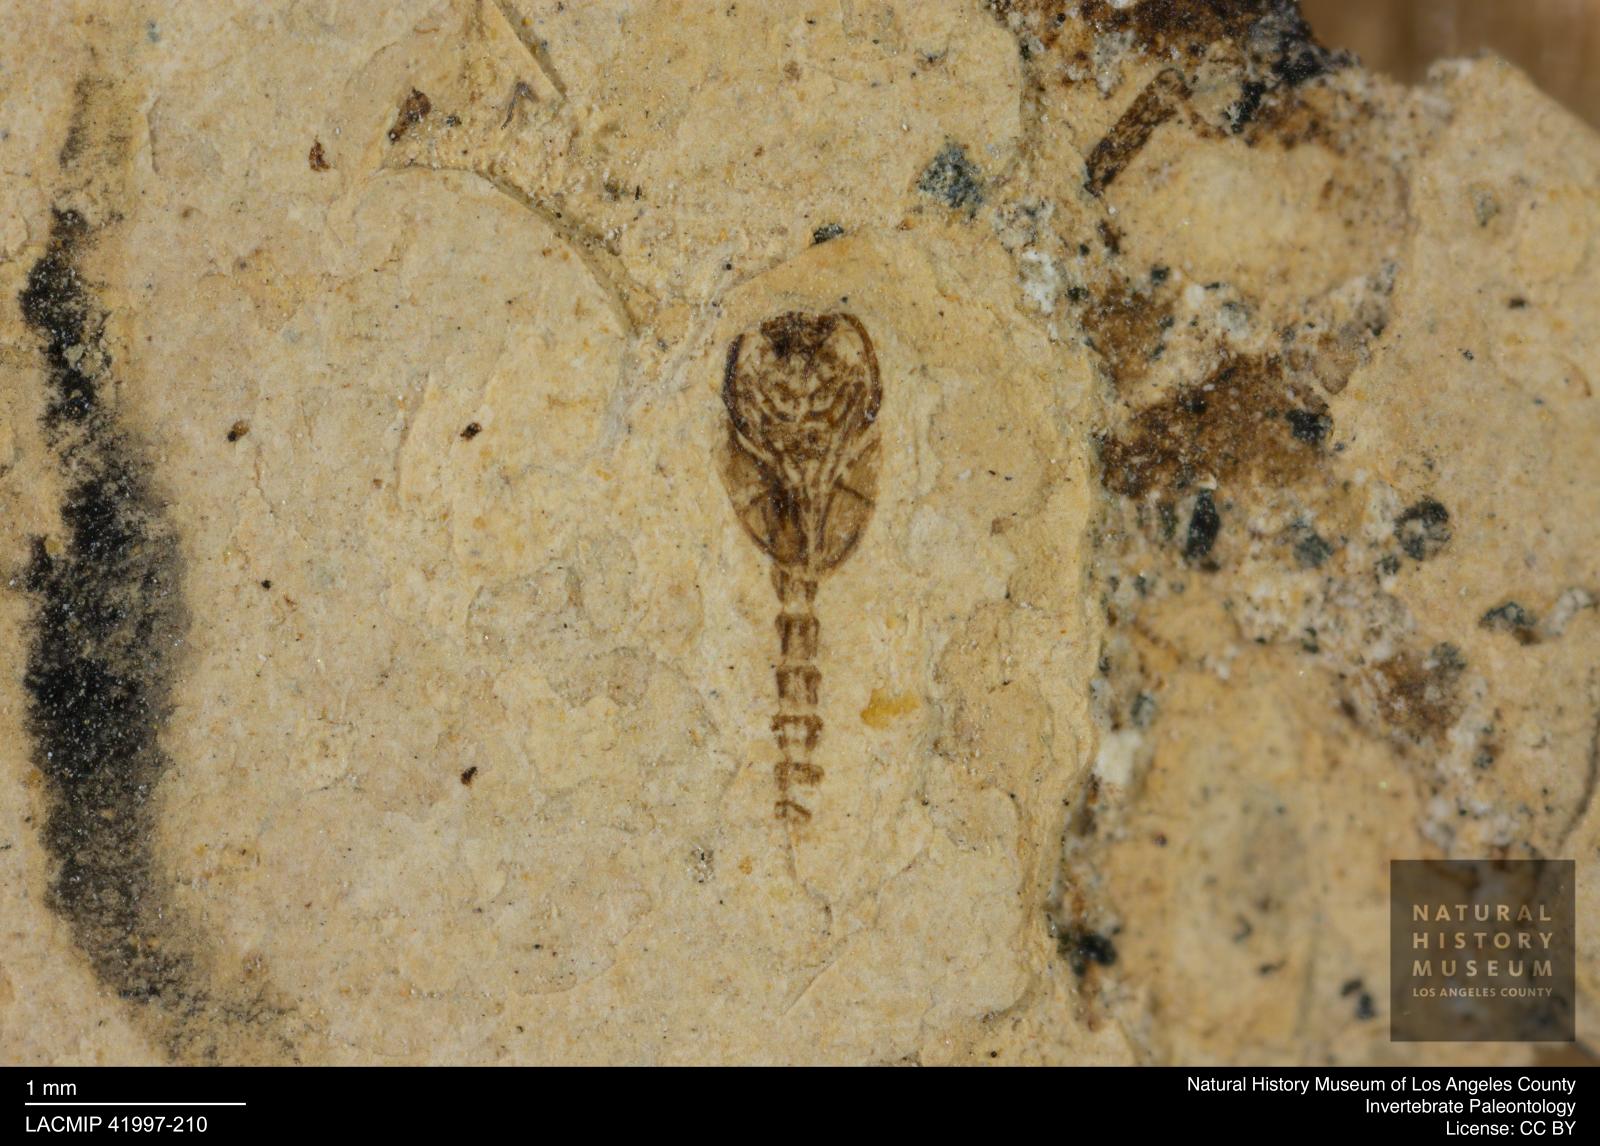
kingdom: Animalia
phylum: Arthropoda
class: Insecta
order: Diptera
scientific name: Diptera
